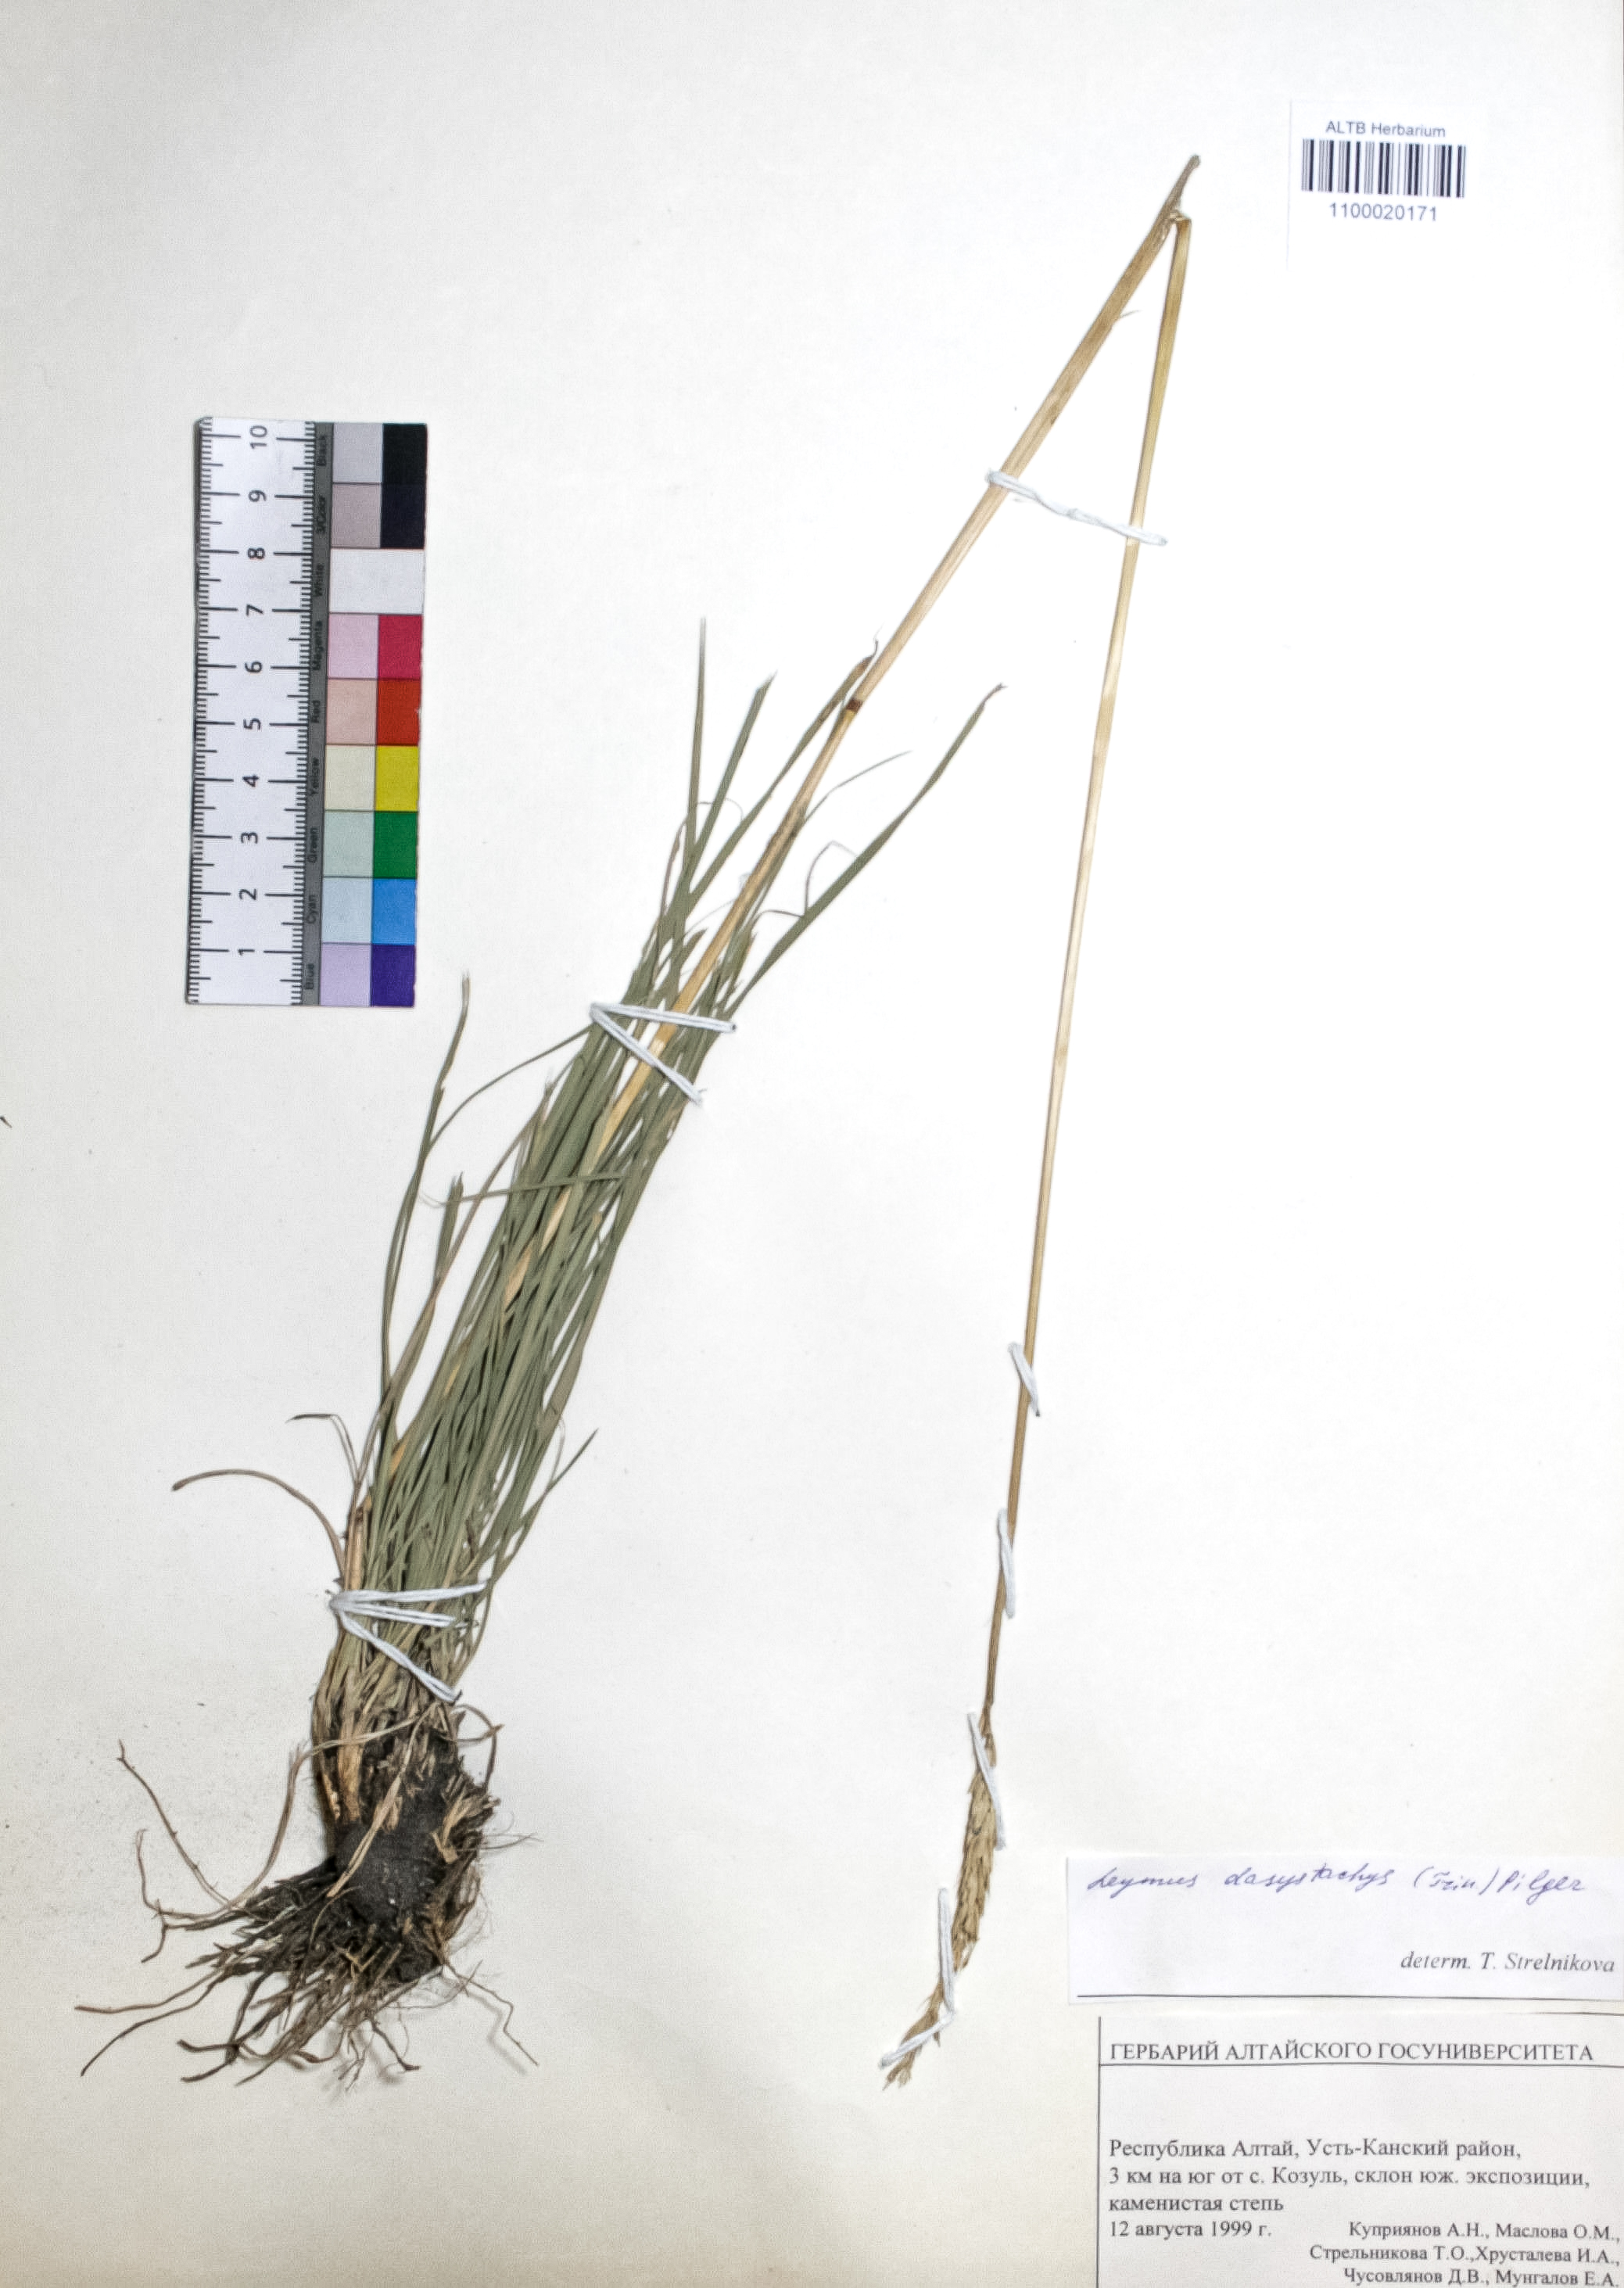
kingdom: Plantae
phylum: Tracheophyta
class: Liliopsida
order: Poales
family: Poaceae
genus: Leymus
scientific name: Leymus secalinus
